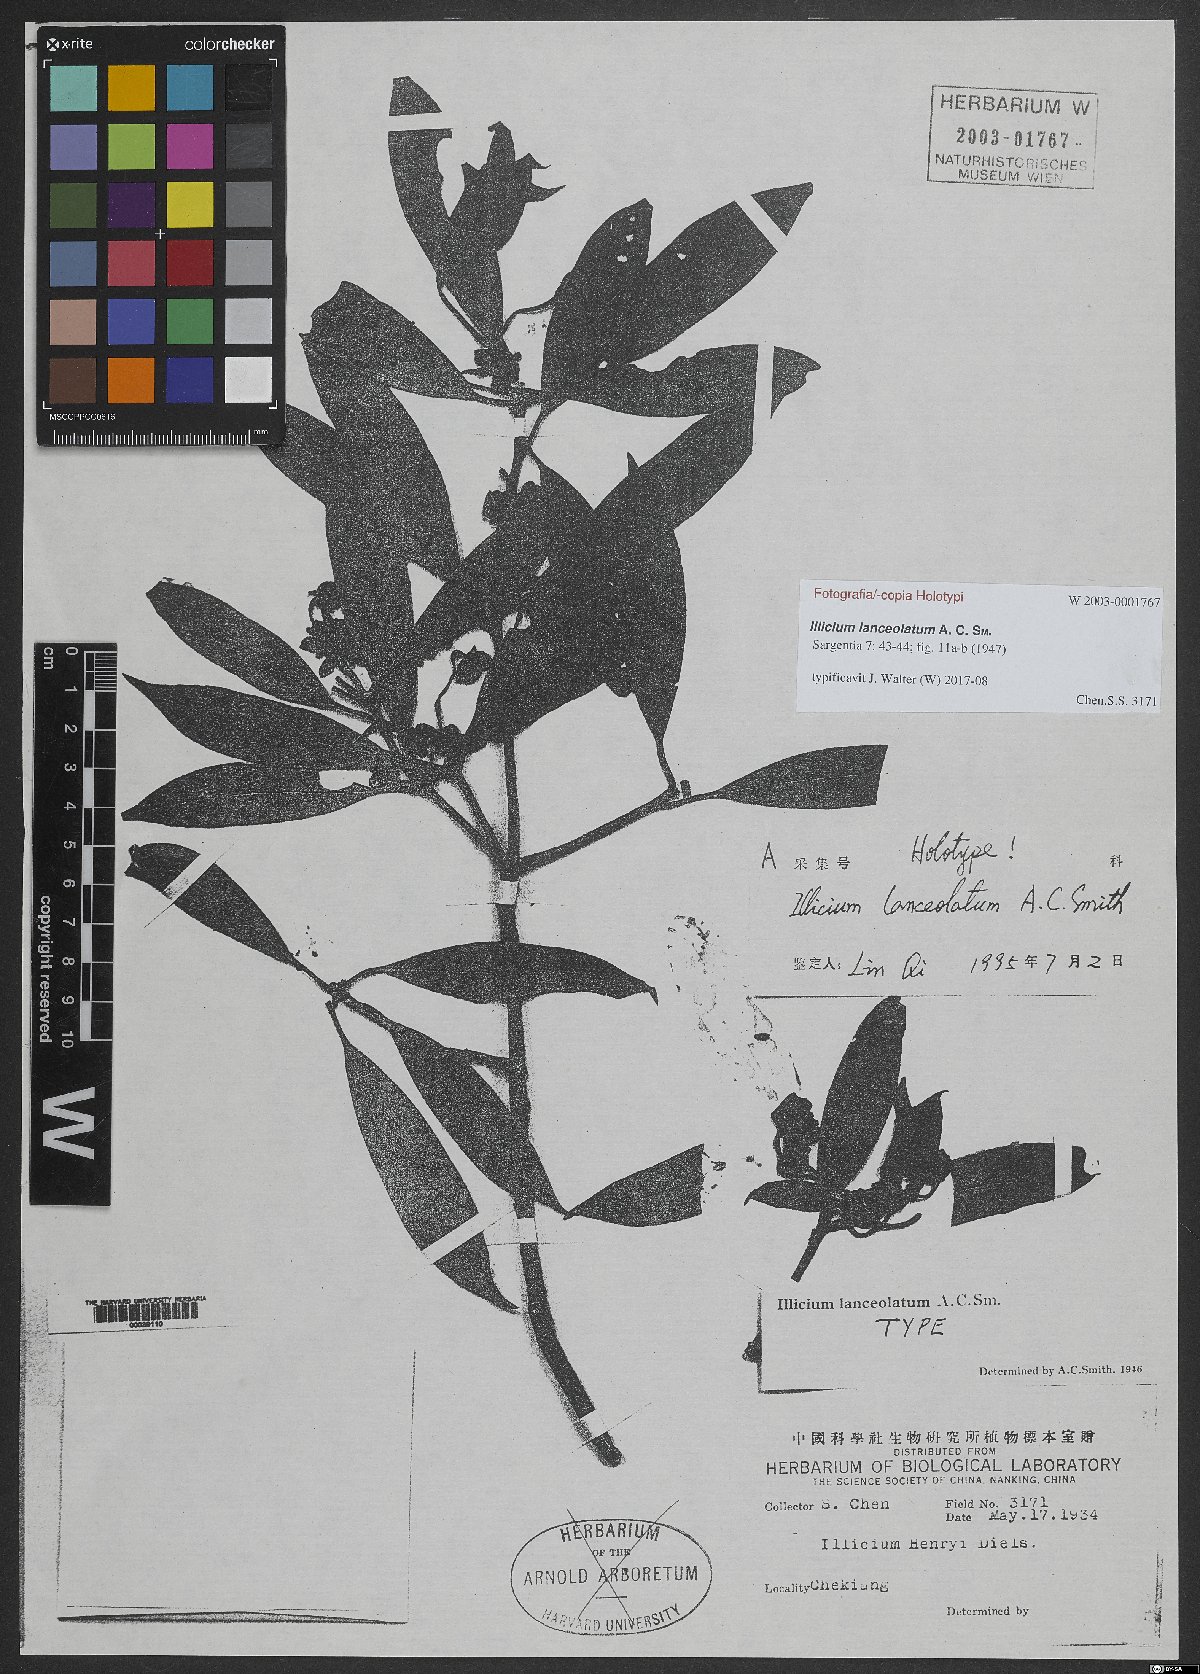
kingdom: Plantae
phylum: Tracheophyta
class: Magnoliopsida
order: Austrobaileyales
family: Schisandraceae
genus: Illicium
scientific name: Illicium lanceolatum
